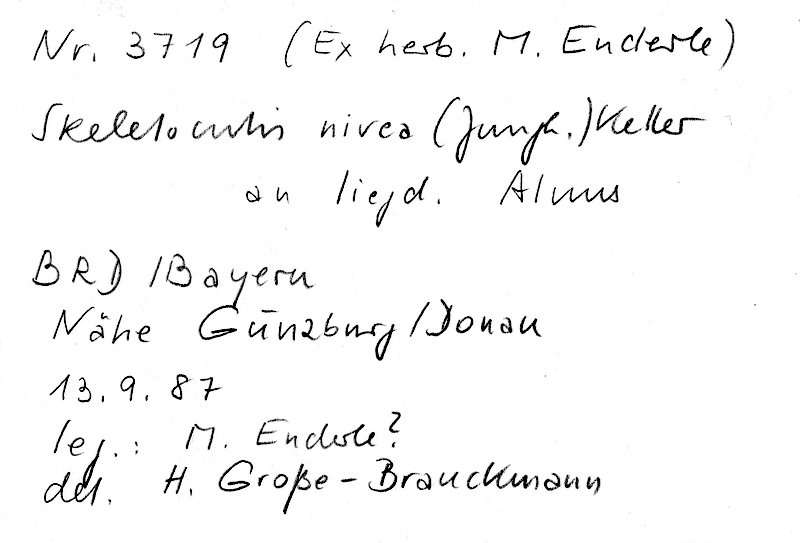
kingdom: Fungi
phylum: Basidiomycota
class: Agaricomycetes
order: Polyporales
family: Incrustoporiaceae
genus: Skeletocutis
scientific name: Skeletocutis nivea
